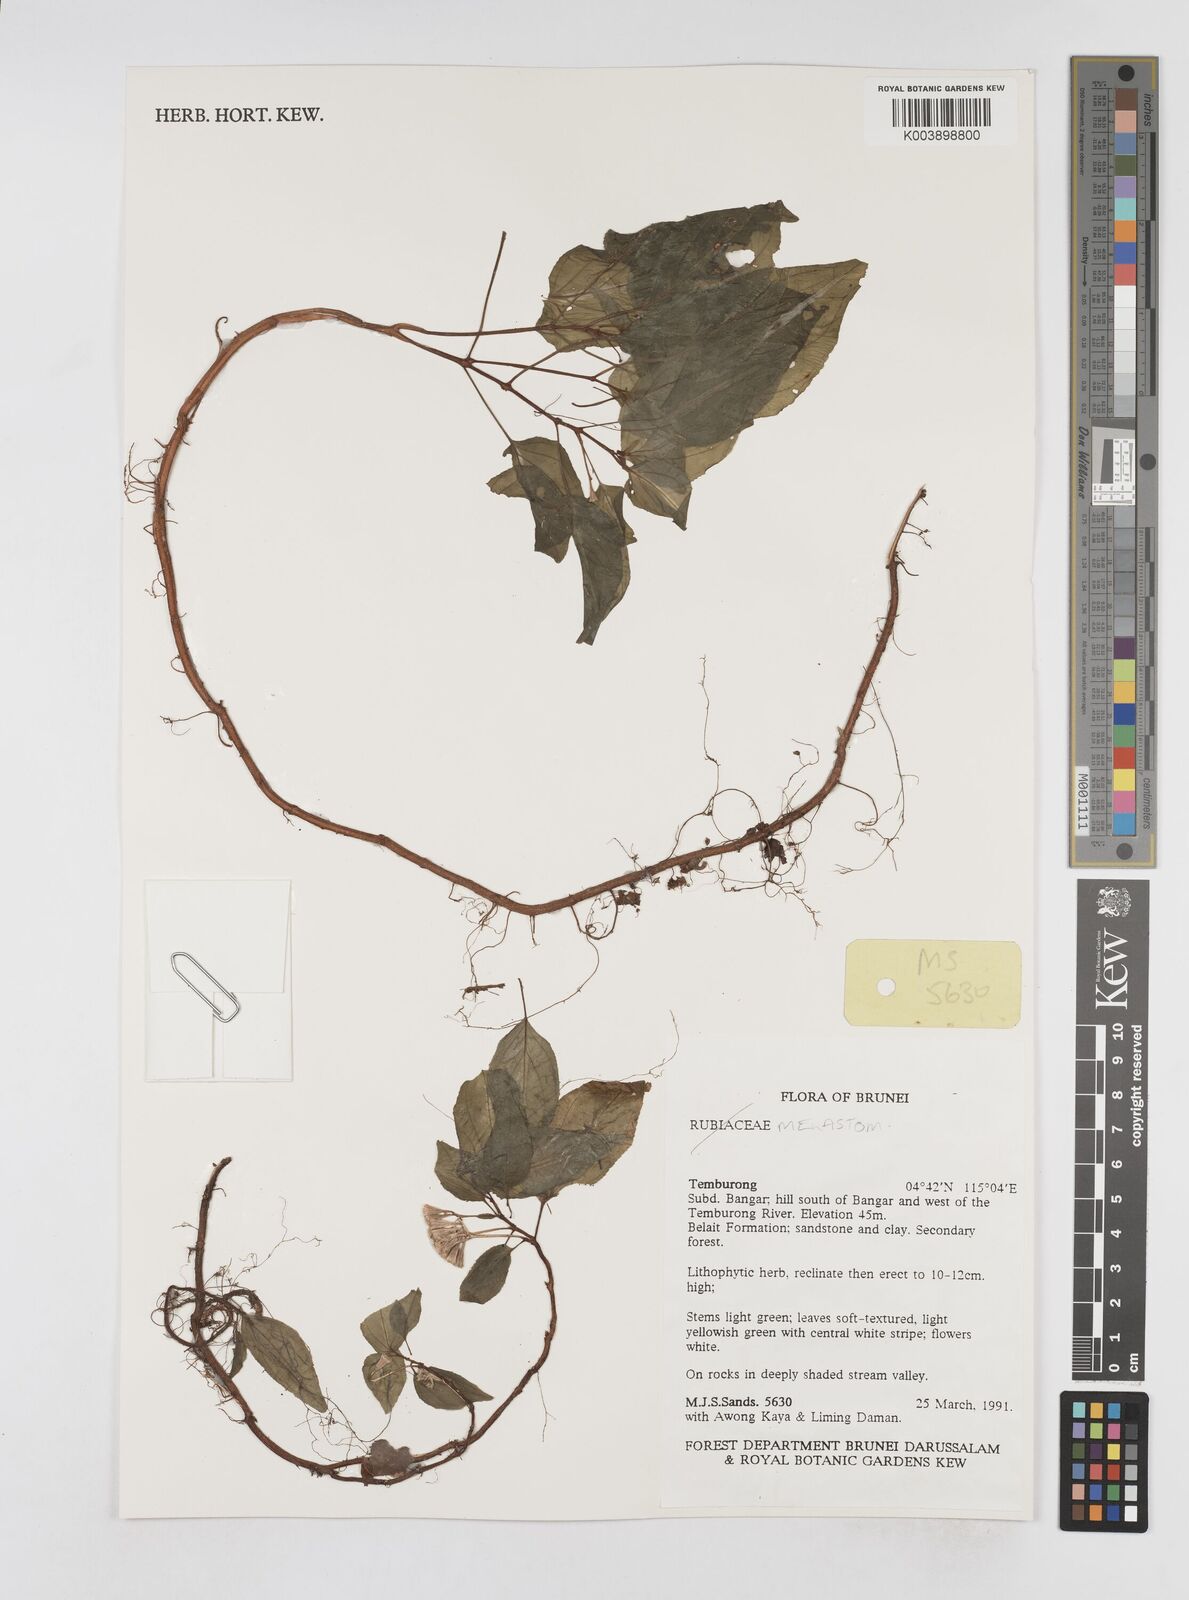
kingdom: Plantae
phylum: Tracheophyta
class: Magnoliopsida
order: Myrtales
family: Melastomataceae
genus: Sonerila
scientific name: Sonerila
